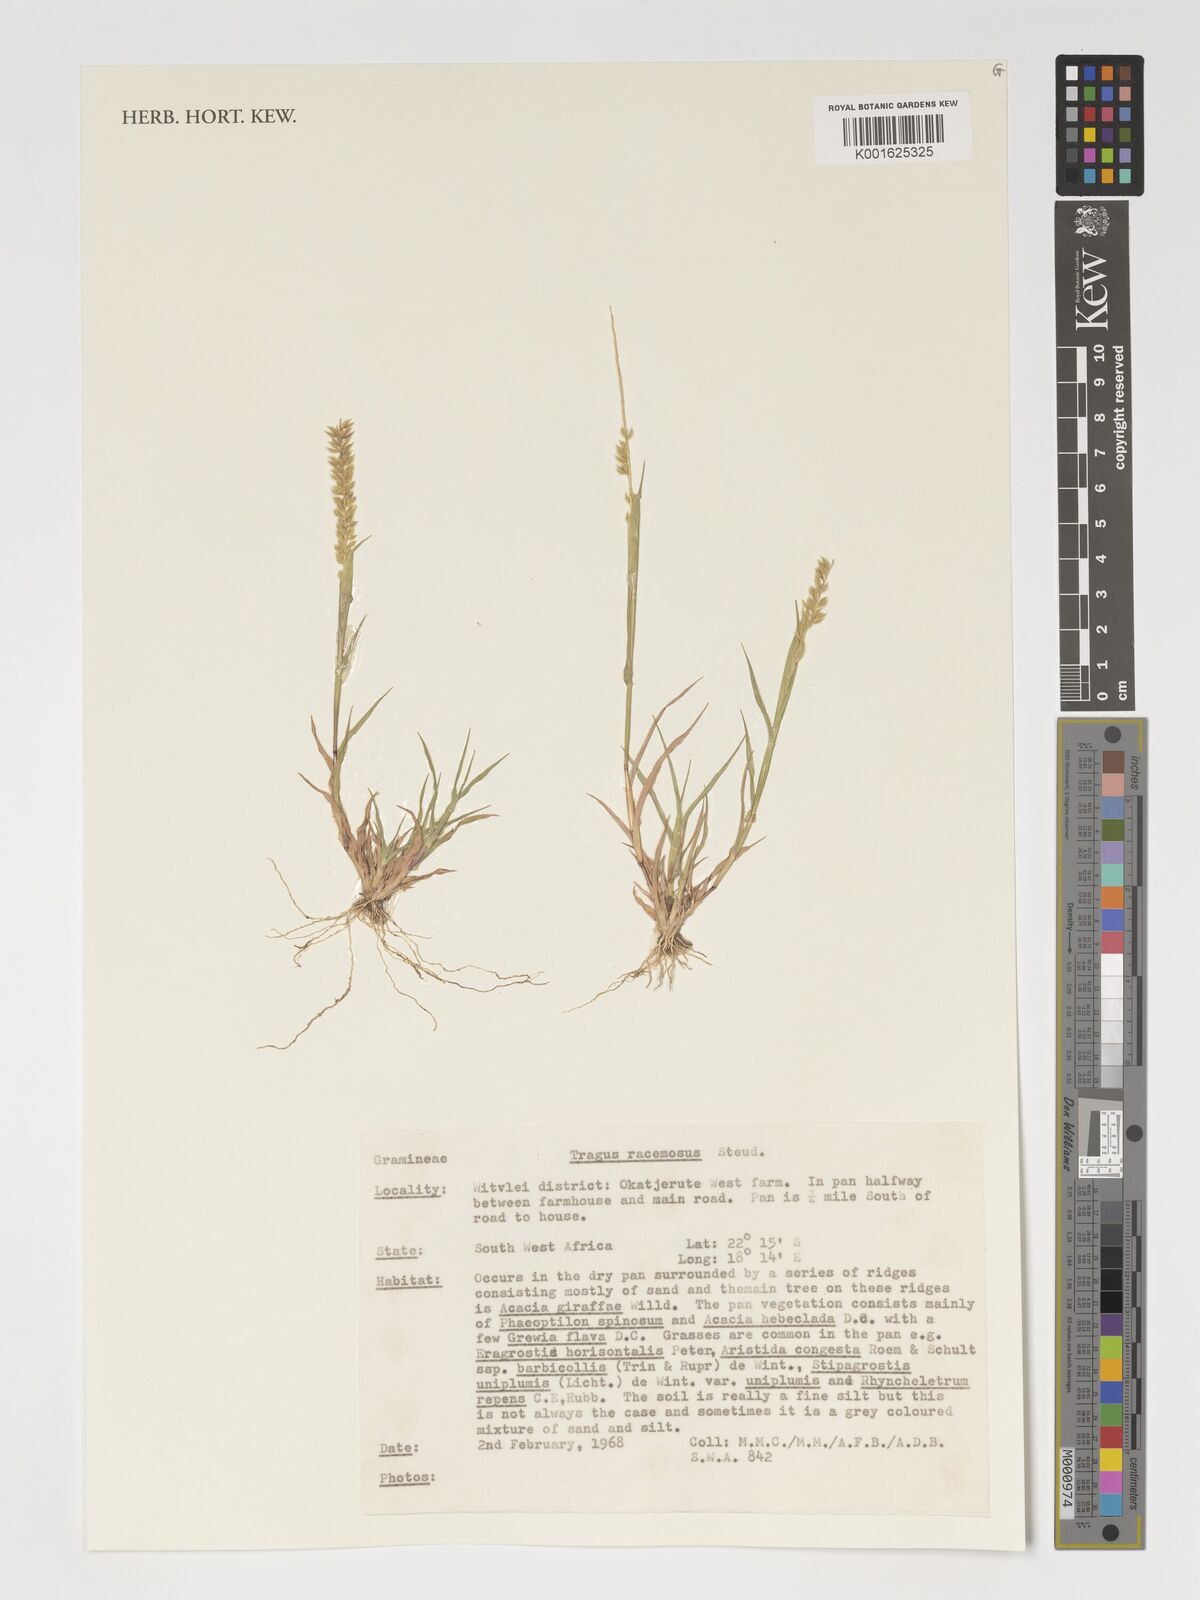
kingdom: Plantae
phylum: Tracheophyta
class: Liliopsida
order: Poales
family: Poaceae
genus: Tragus
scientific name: Tragus racemosus
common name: European bur-grass
